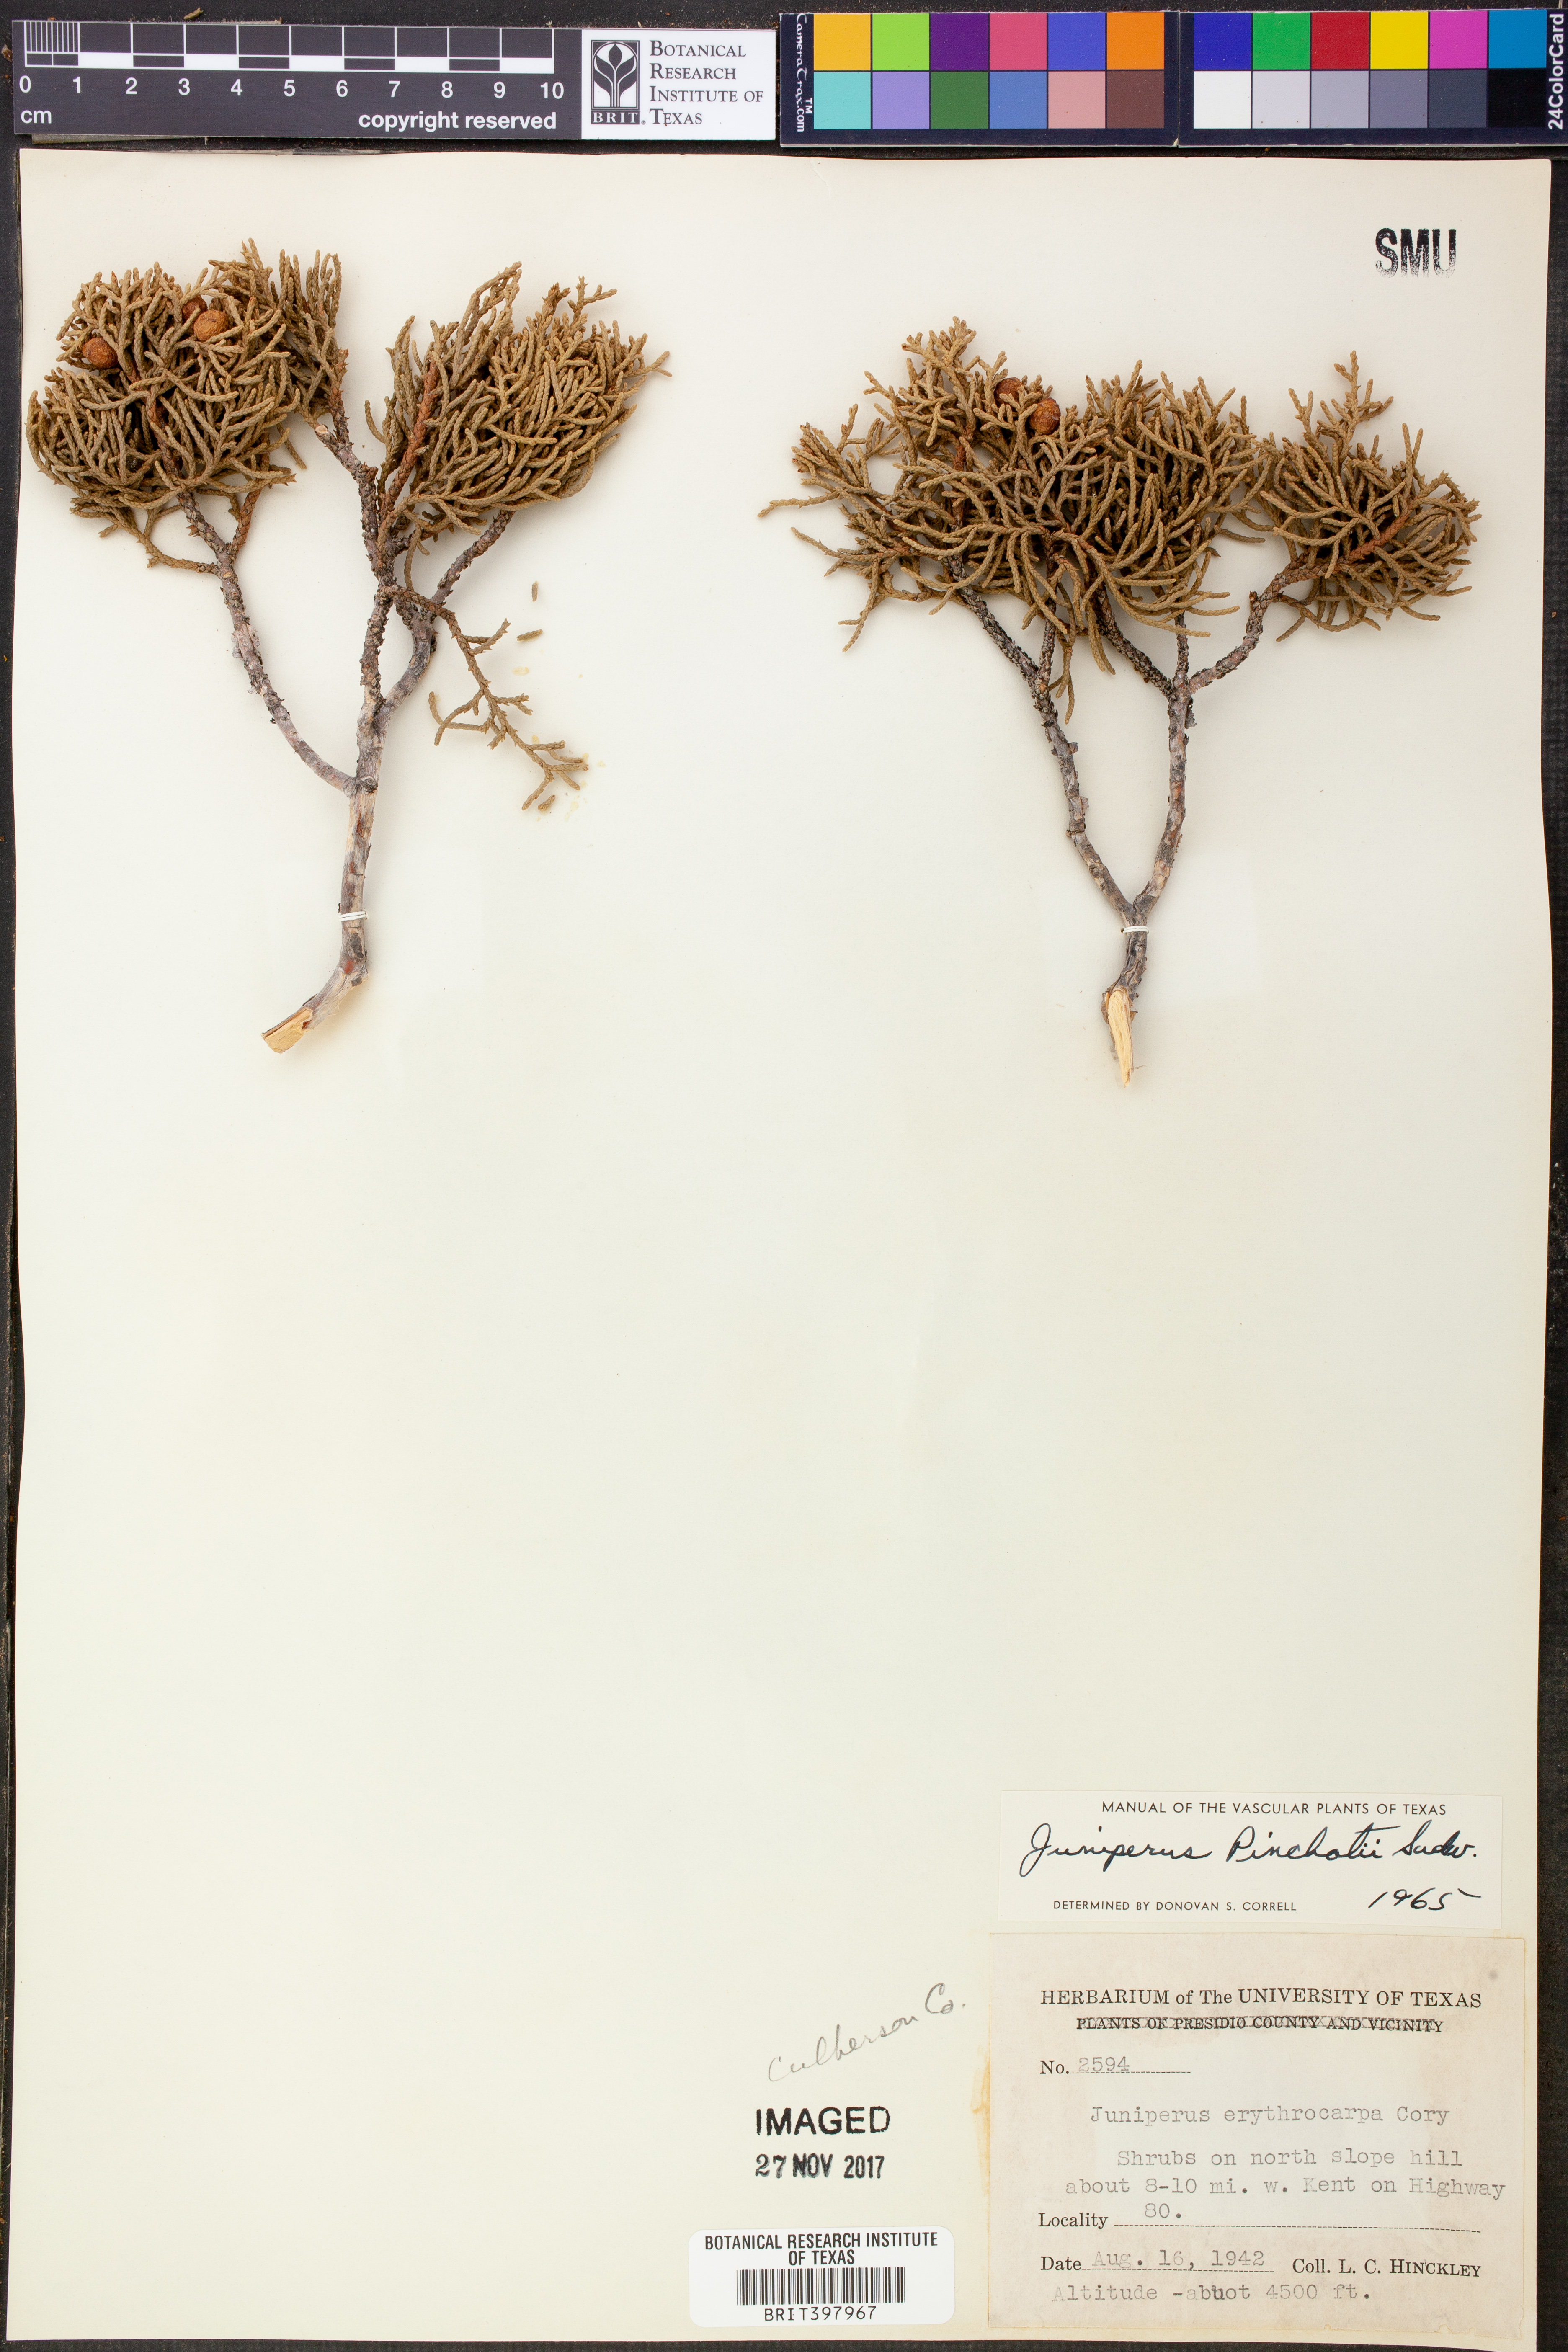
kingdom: Plantae
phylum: Tracheophyta
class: Pinopsida
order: Pinales
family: Cupressaceae
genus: Juniperus
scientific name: Juniperus pinchotii
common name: Pinchot juniper
